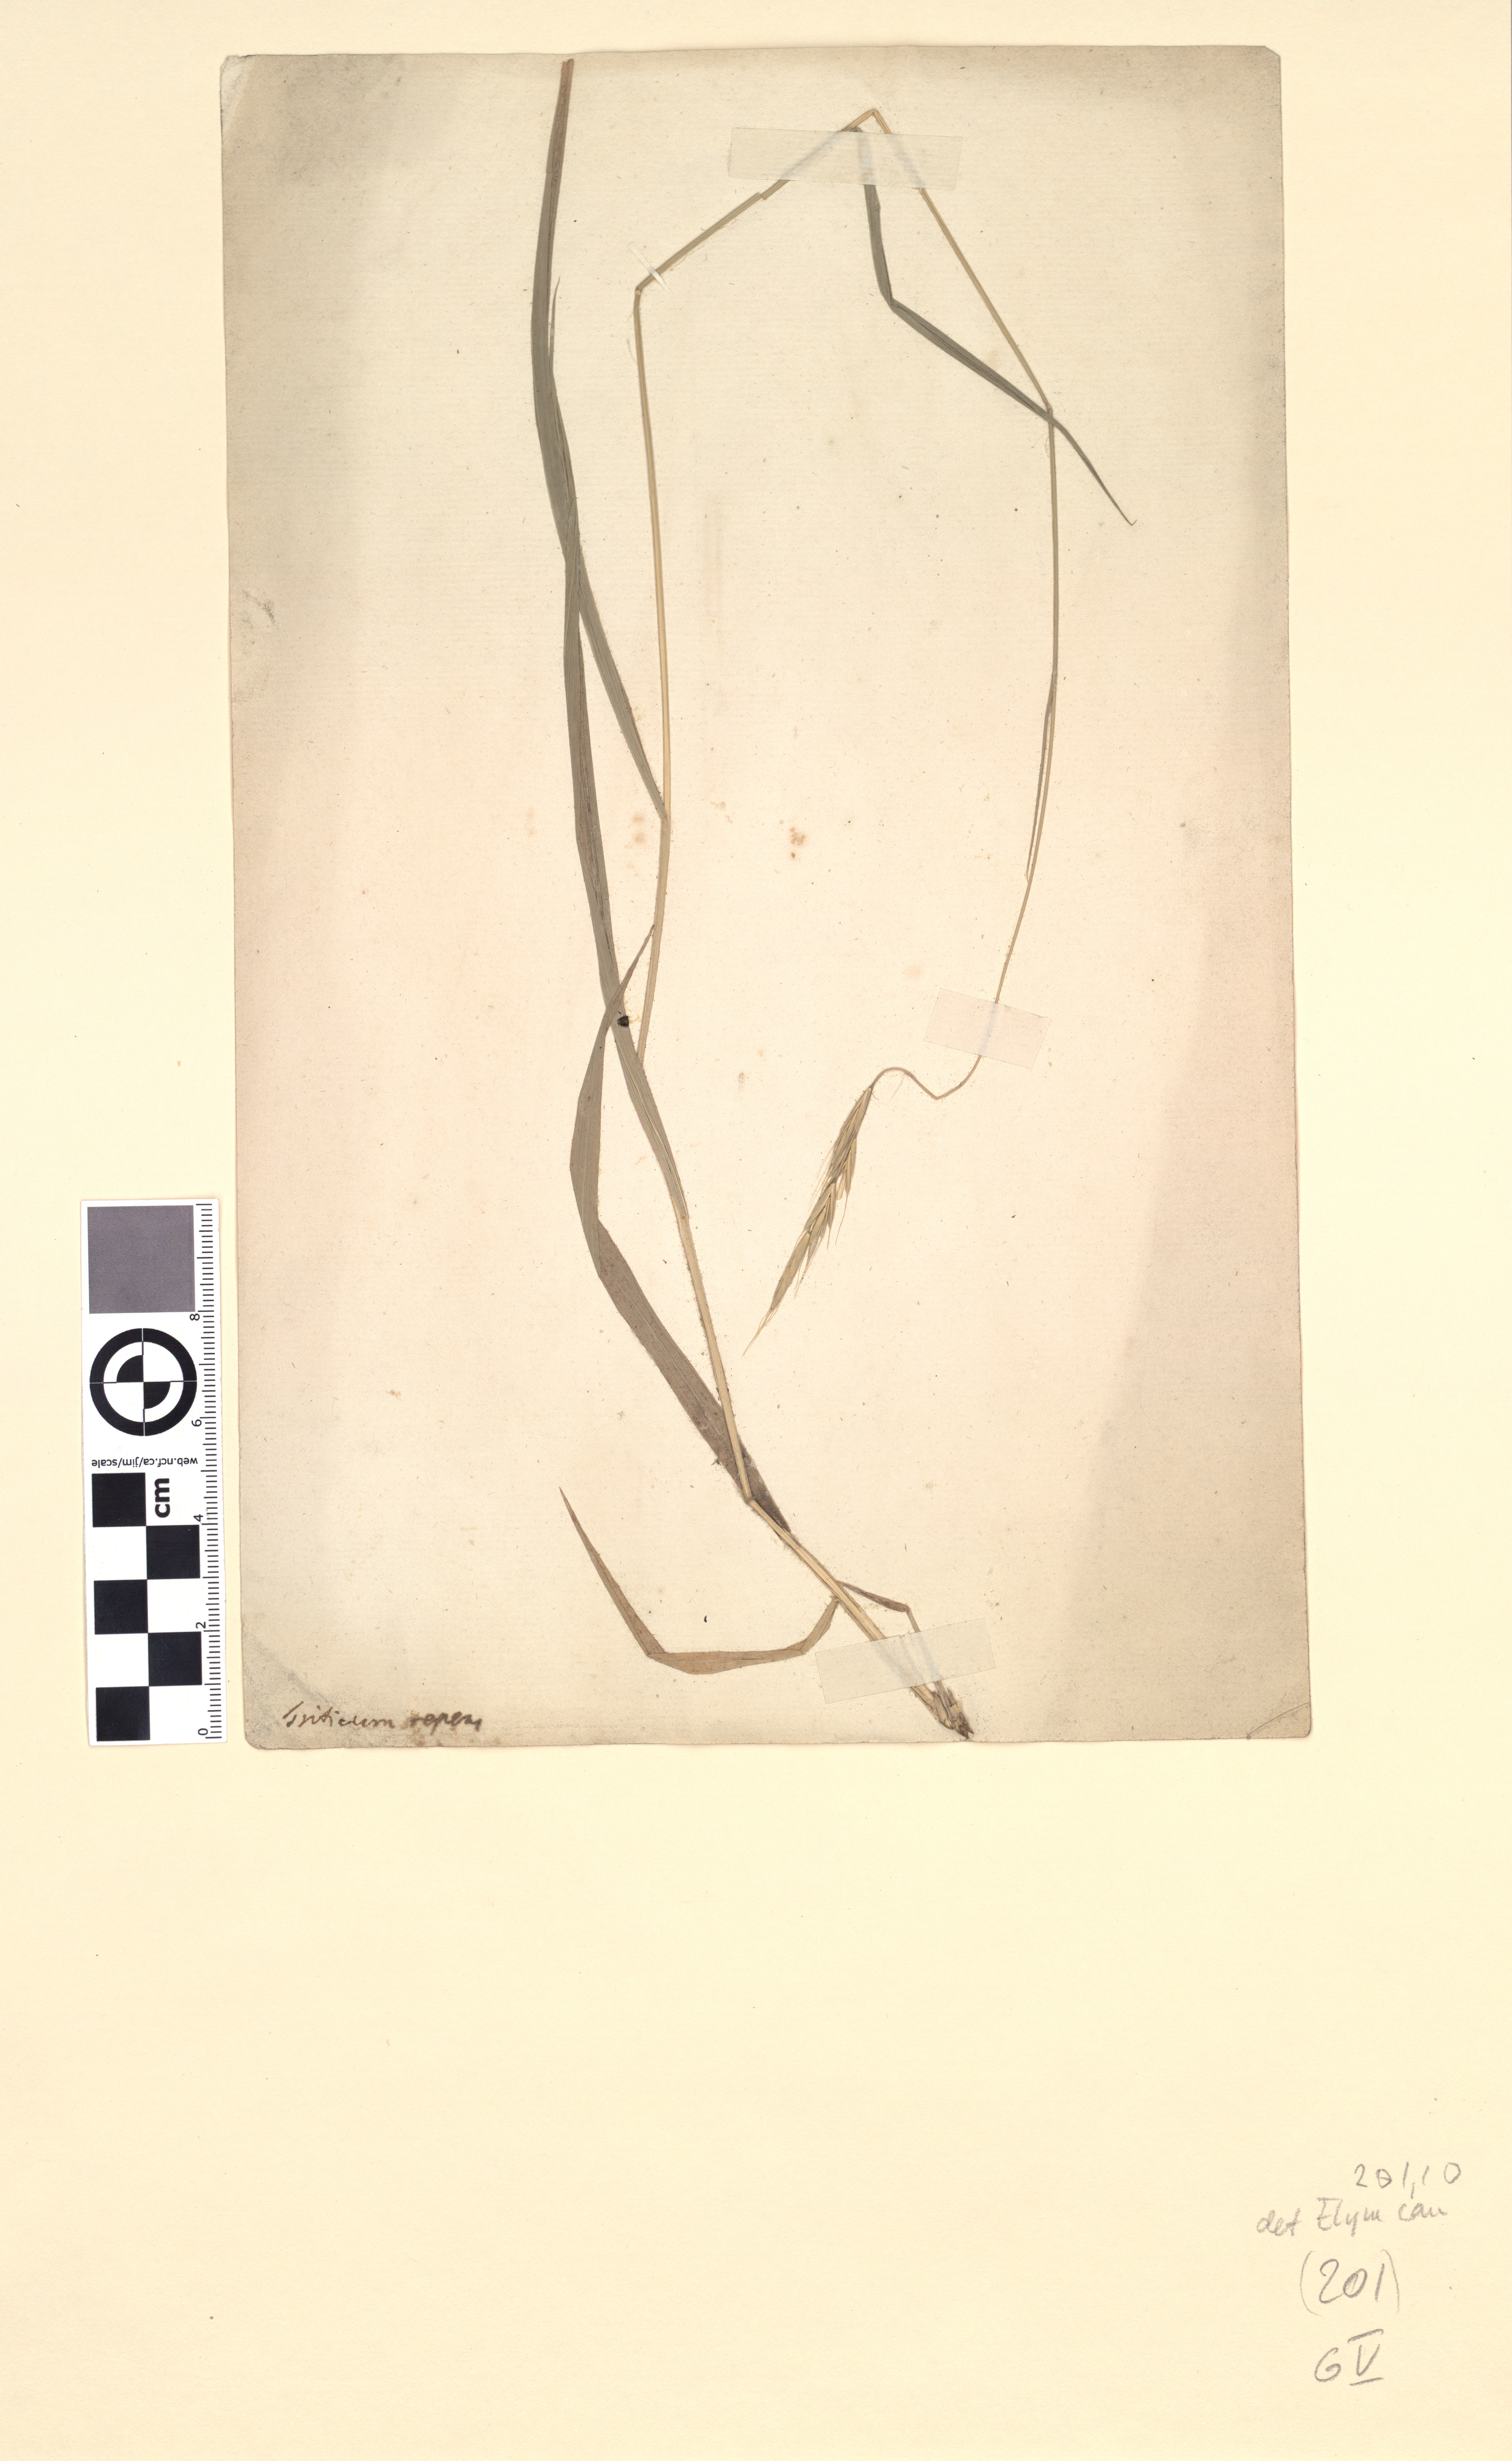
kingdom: Plantae
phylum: Tracheophyta
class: Liliopsida
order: Poales
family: Poaceae
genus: Elymus
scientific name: Elymus caninus
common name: Bearded couch
